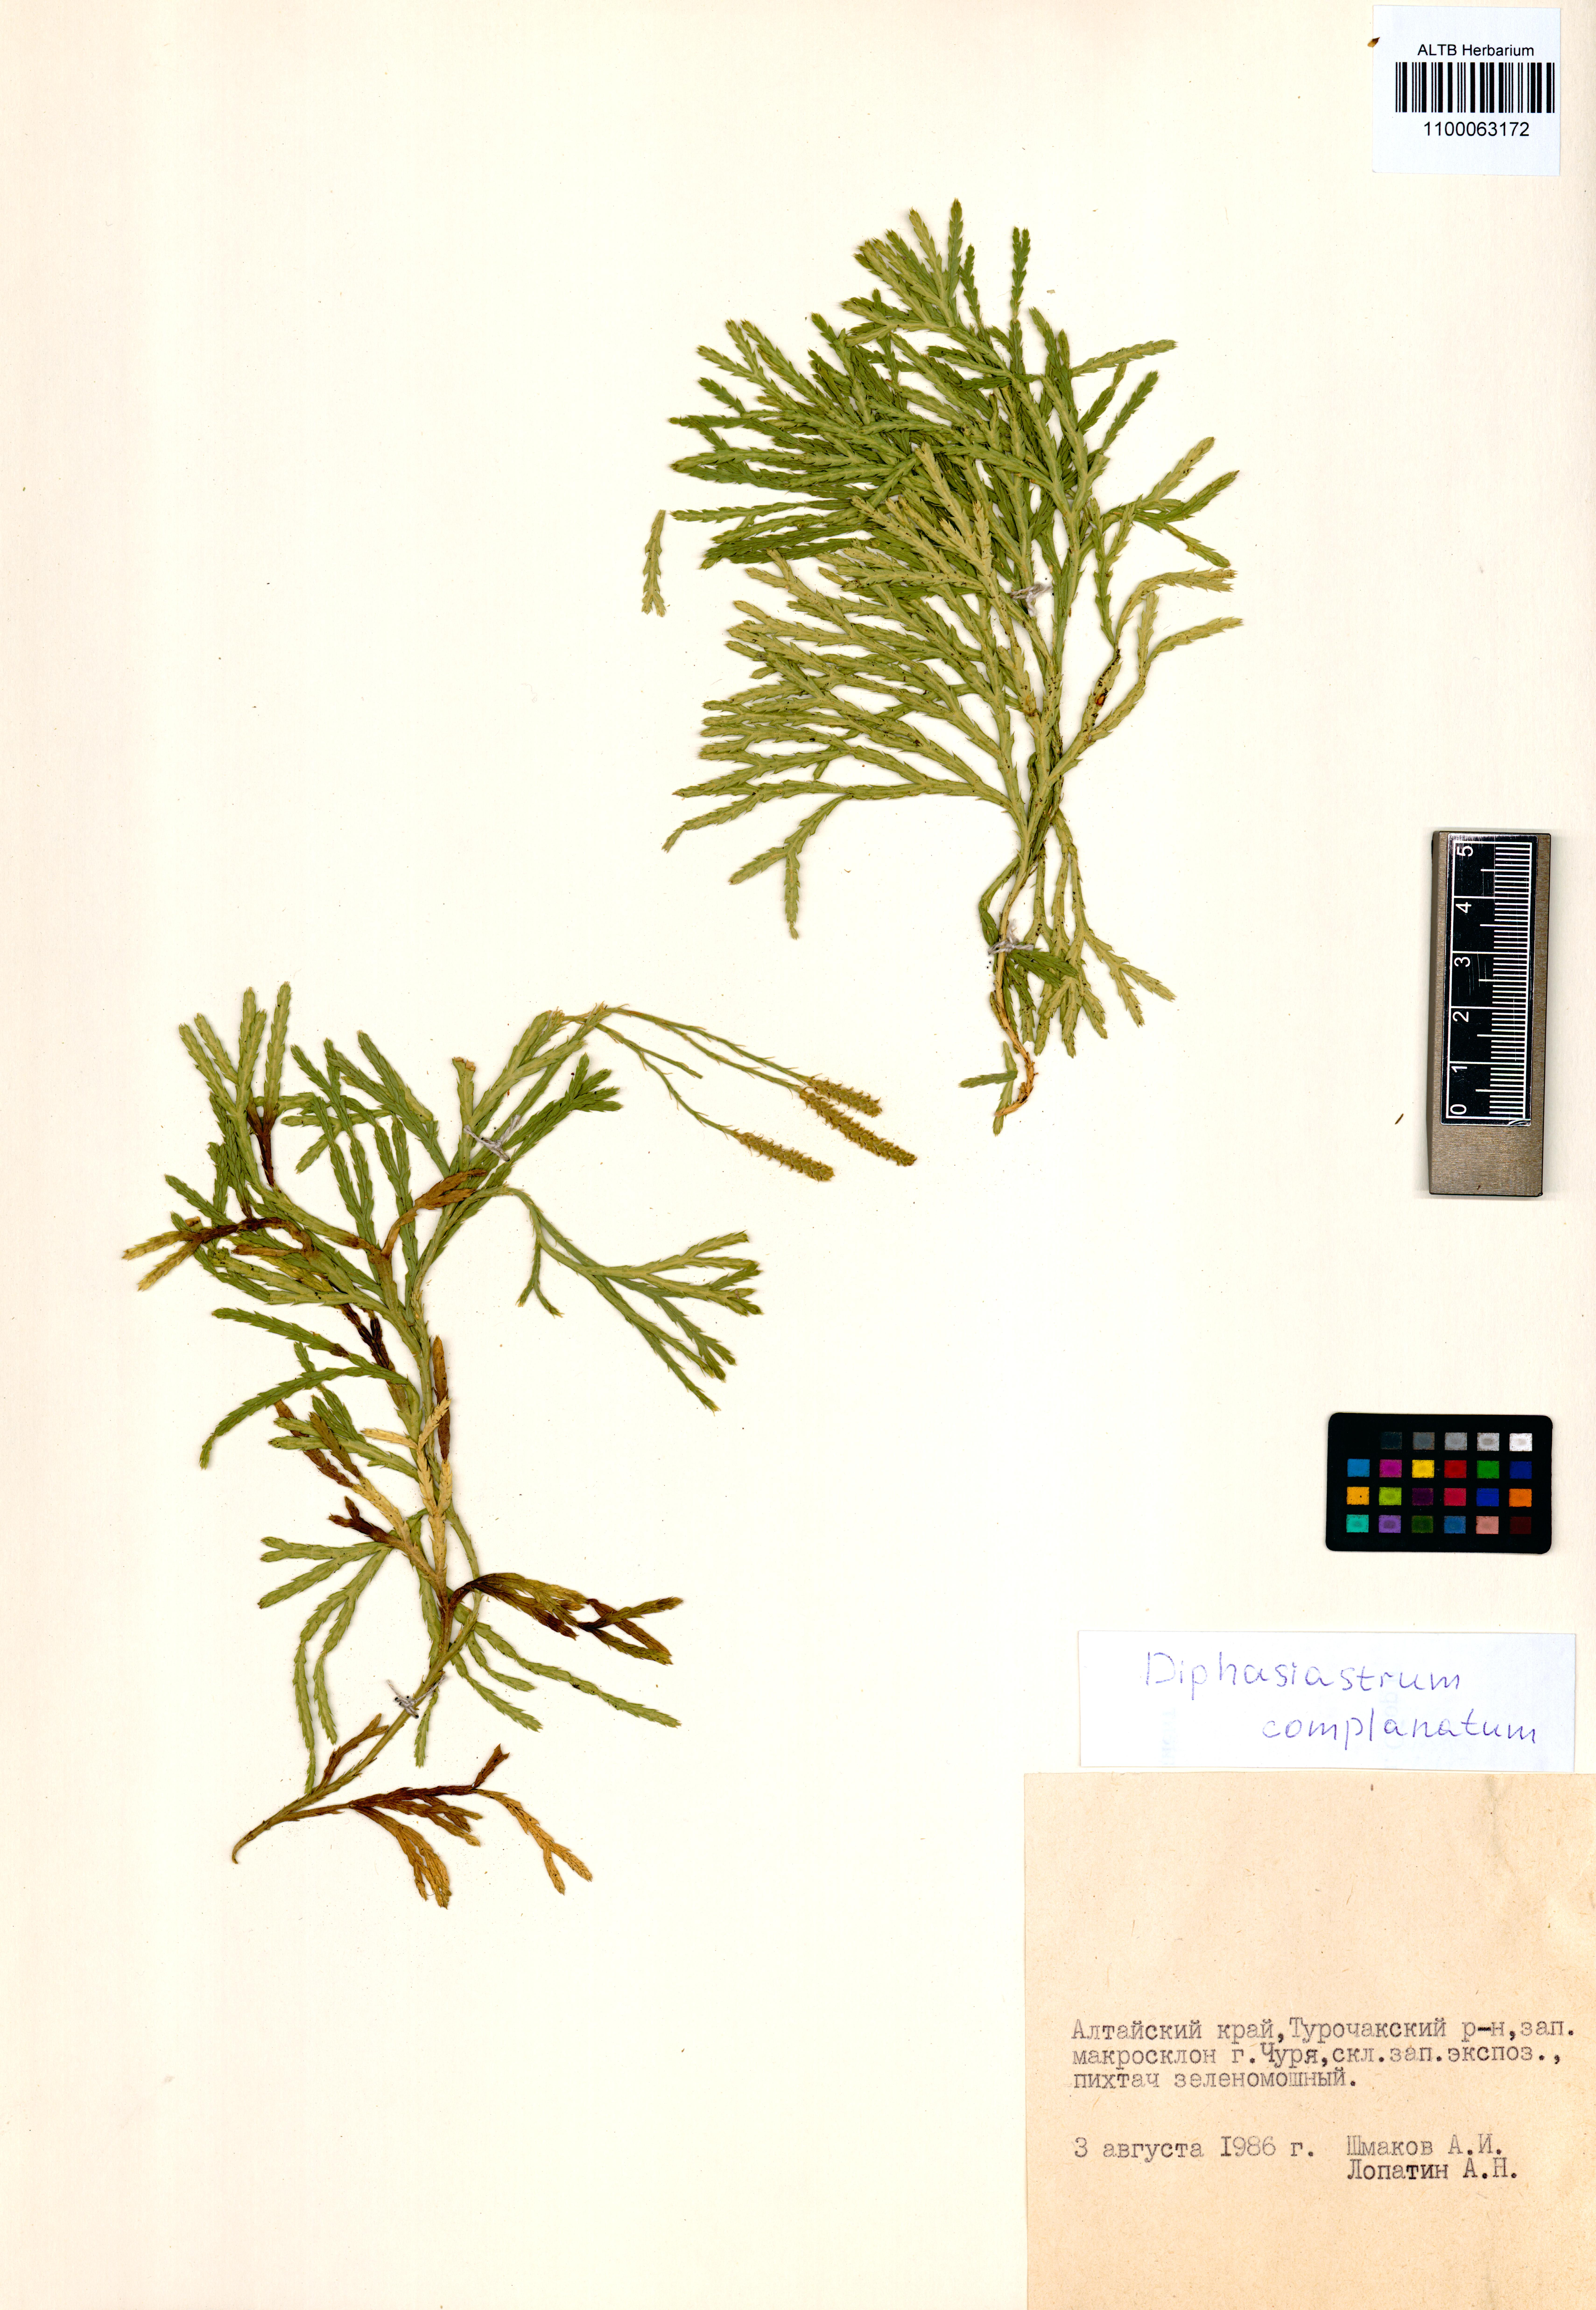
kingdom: Plantae
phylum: Tracheophyta
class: Lycopodiopsida
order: Lycopodiales
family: Lycopodiaceae
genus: Diphasiastrum
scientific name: Diphasiastrum complanatum
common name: Northern running-pine
